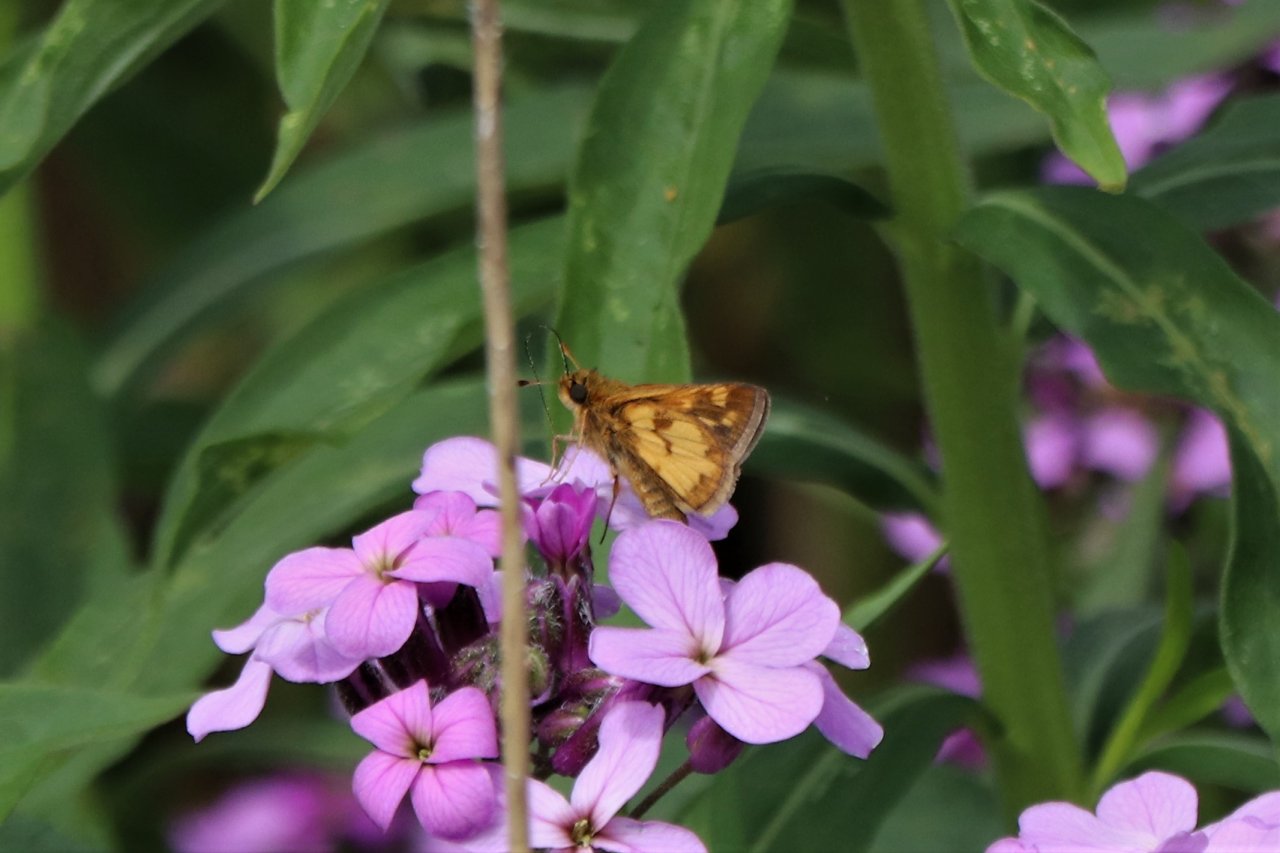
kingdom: Animalia
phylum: Arthropoda
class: Insecta
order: Lepidoptera
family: Hesperiidae
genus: Polites
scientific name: Polites coras
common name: Peck's Skipper
